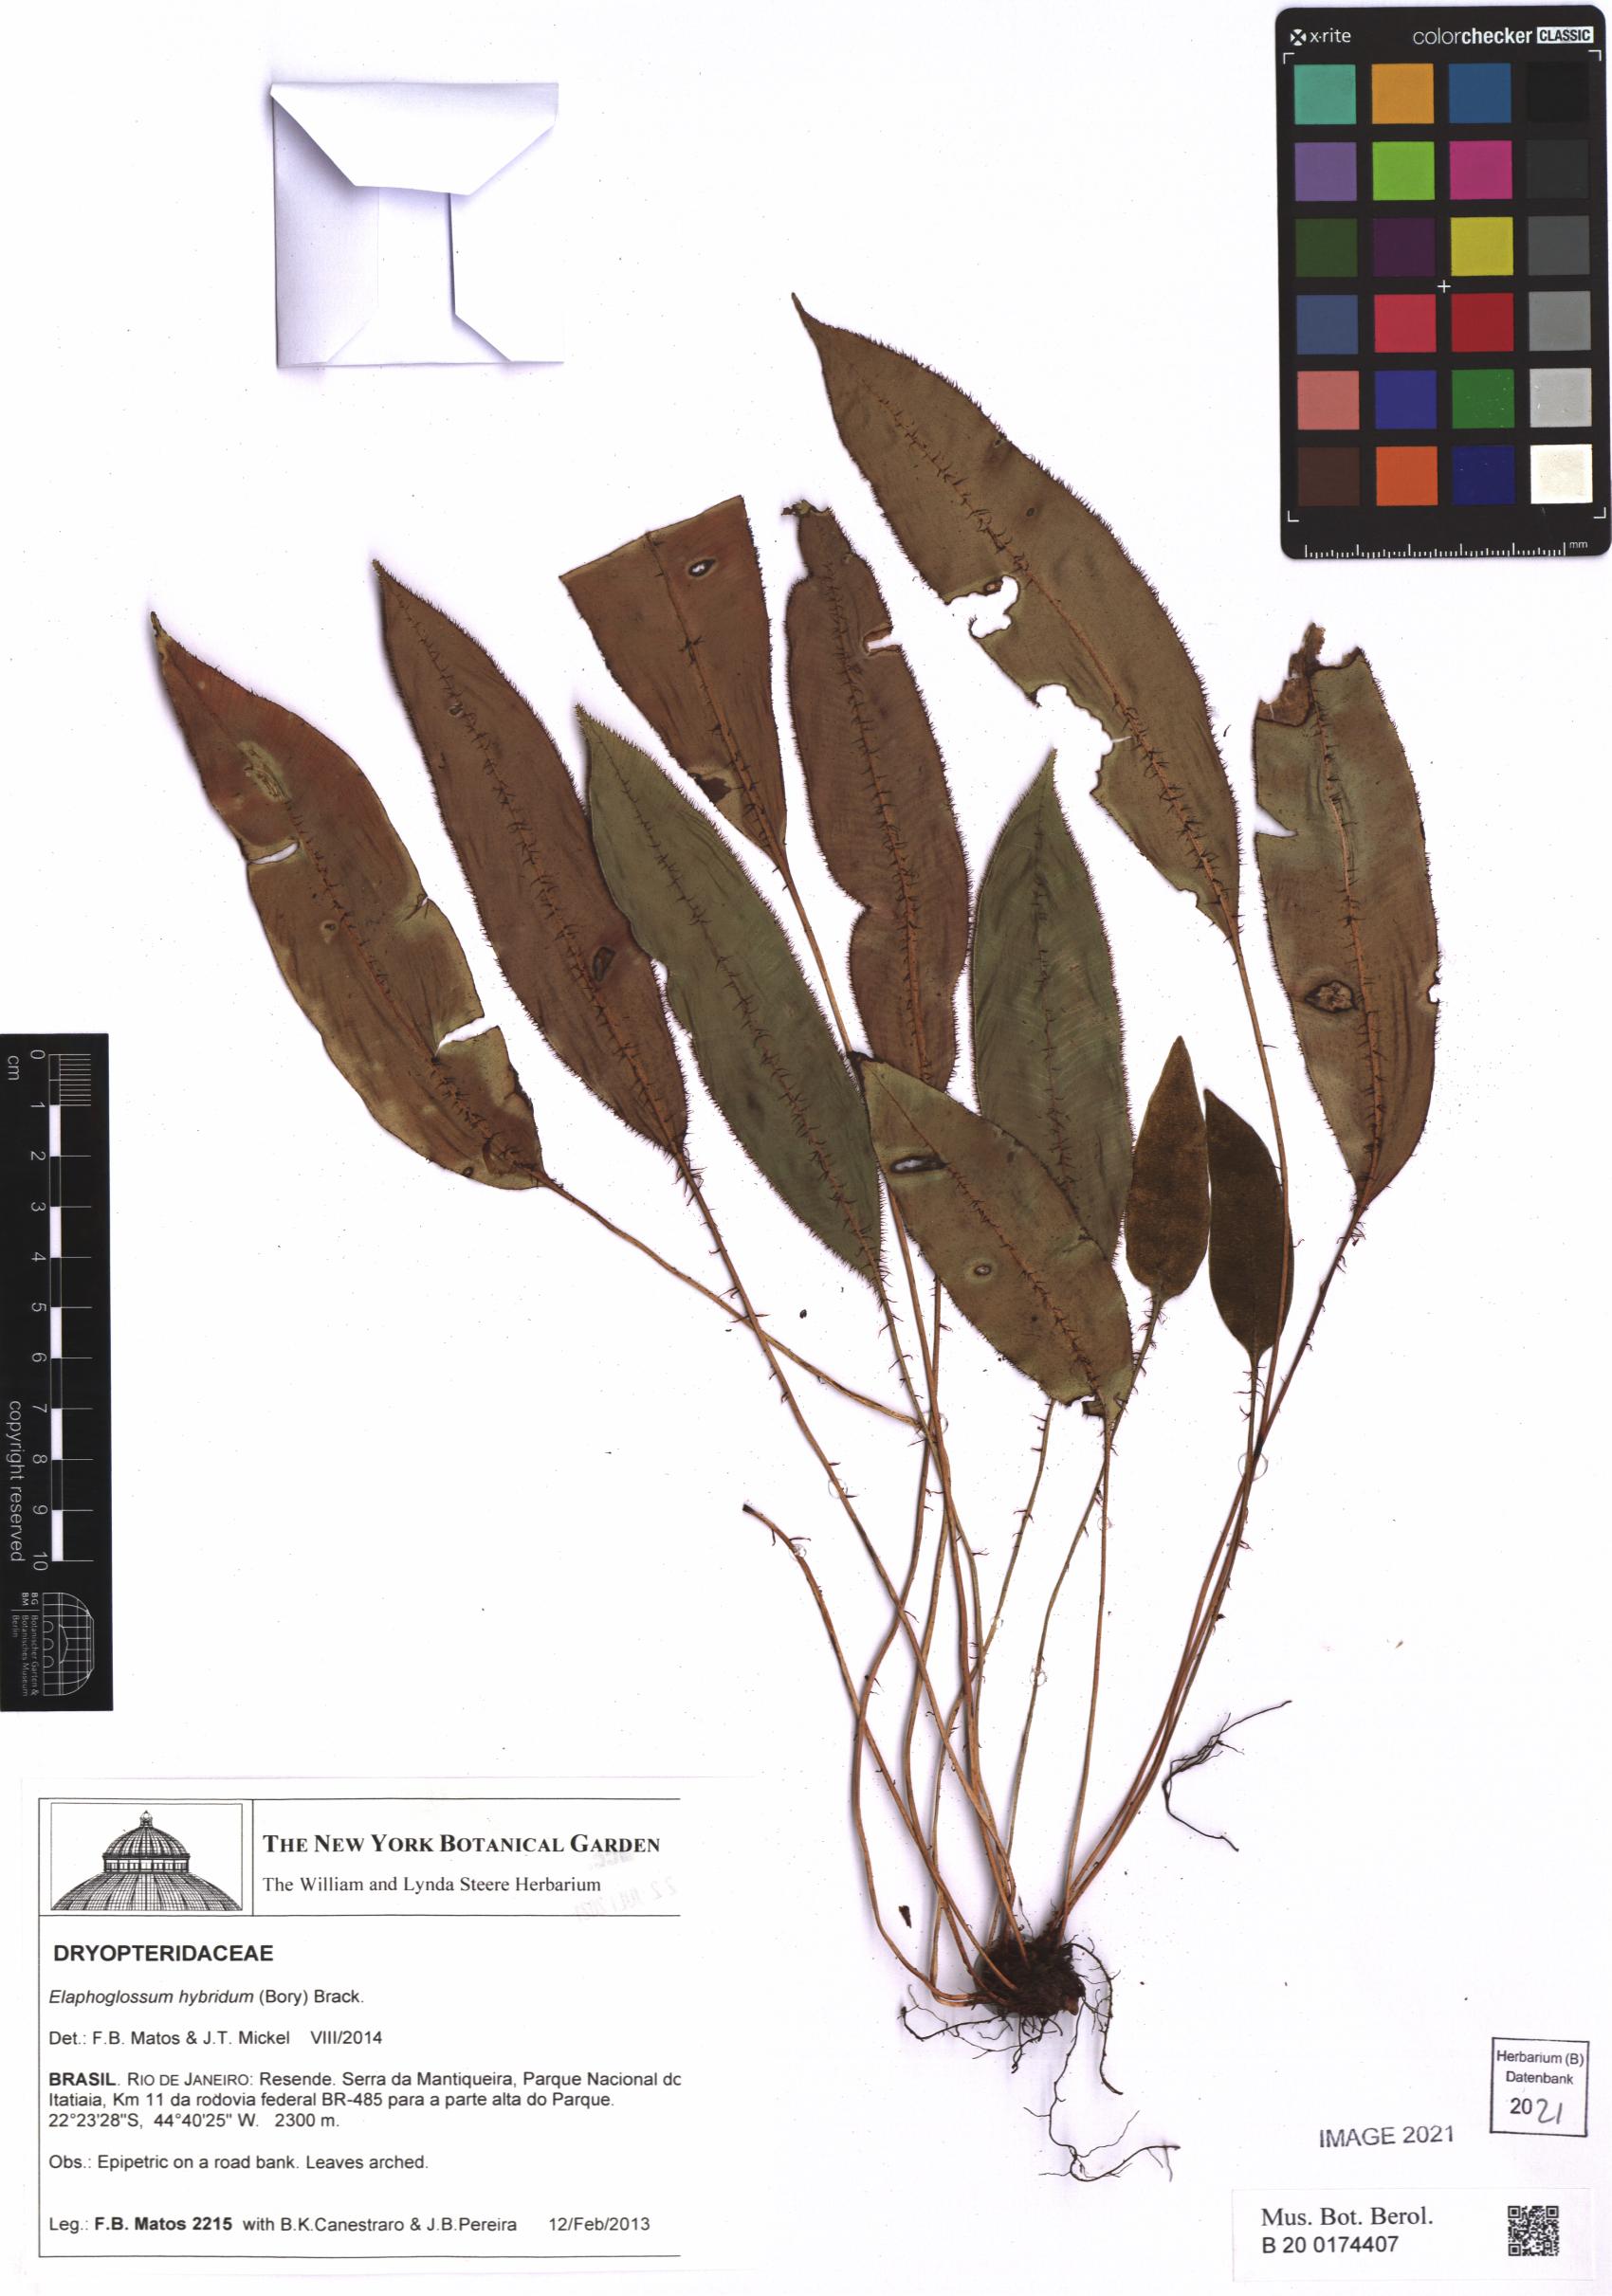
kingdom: Plantae
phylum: Tracheophyta
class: Polypodiopsida
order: Polypodiales
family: Dryopteridaceae
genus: Elaphoglossum
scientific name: Elaphoglossum hybridum
